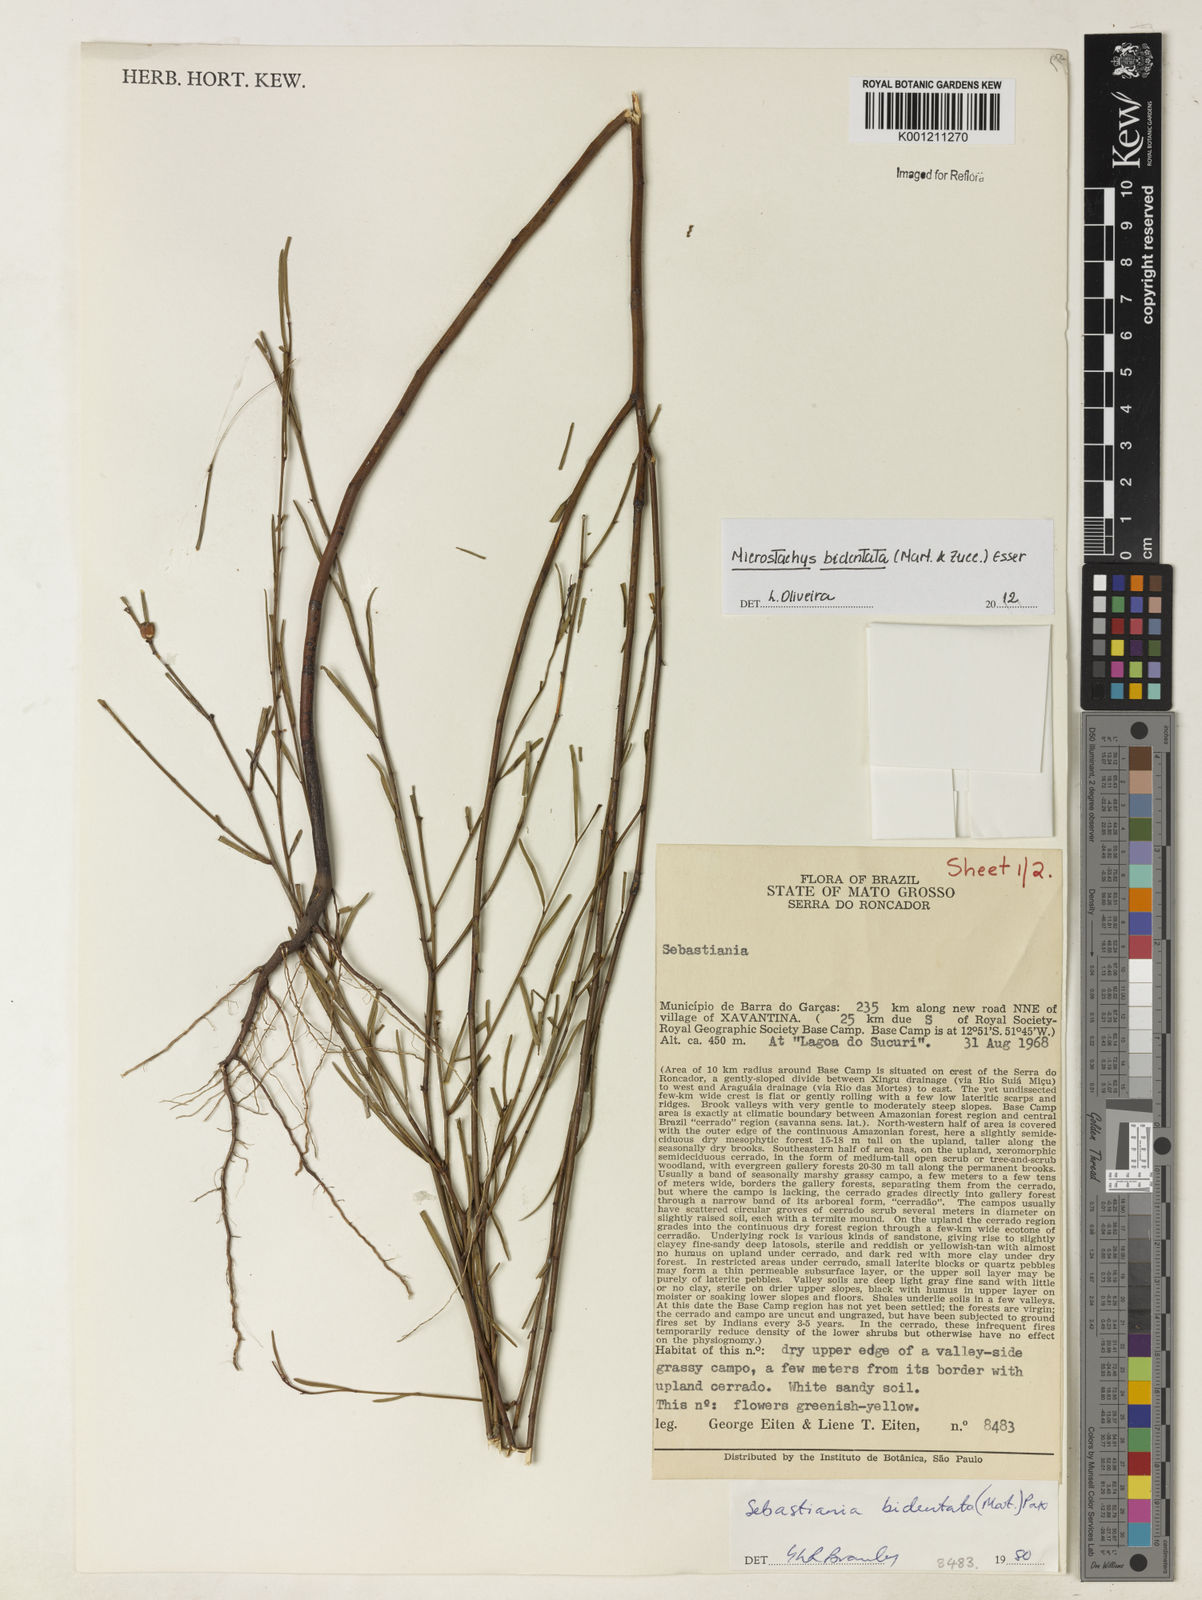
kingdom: Plantae
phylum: Tracheophyta
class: Magnoliopsida
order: Malpighiales
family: Euphorbiaceae
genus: Microstachys
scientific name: Microstachys bidentata
